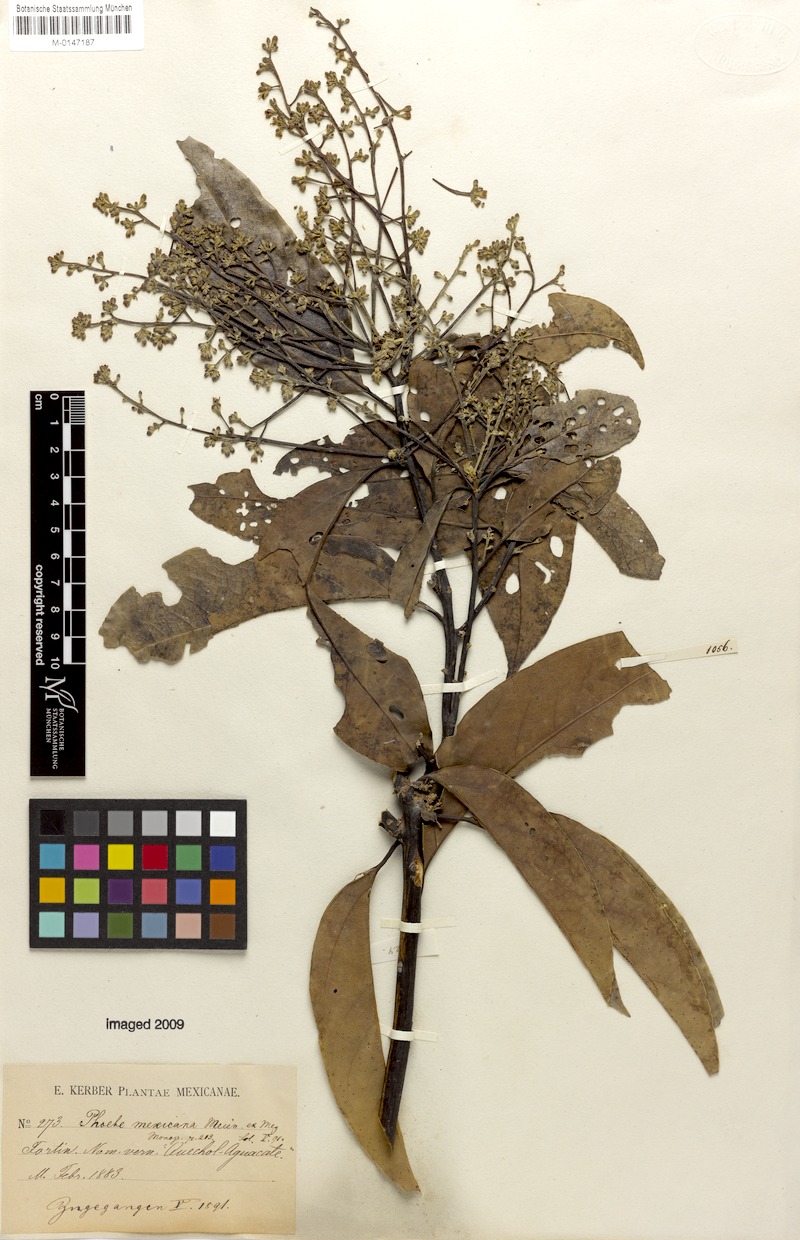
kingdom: Plantae
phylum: Tracheophyta
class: Magnoliopsida
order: Laurales
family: Lauraceae
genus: Aiouea
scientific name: Aiouea montana
